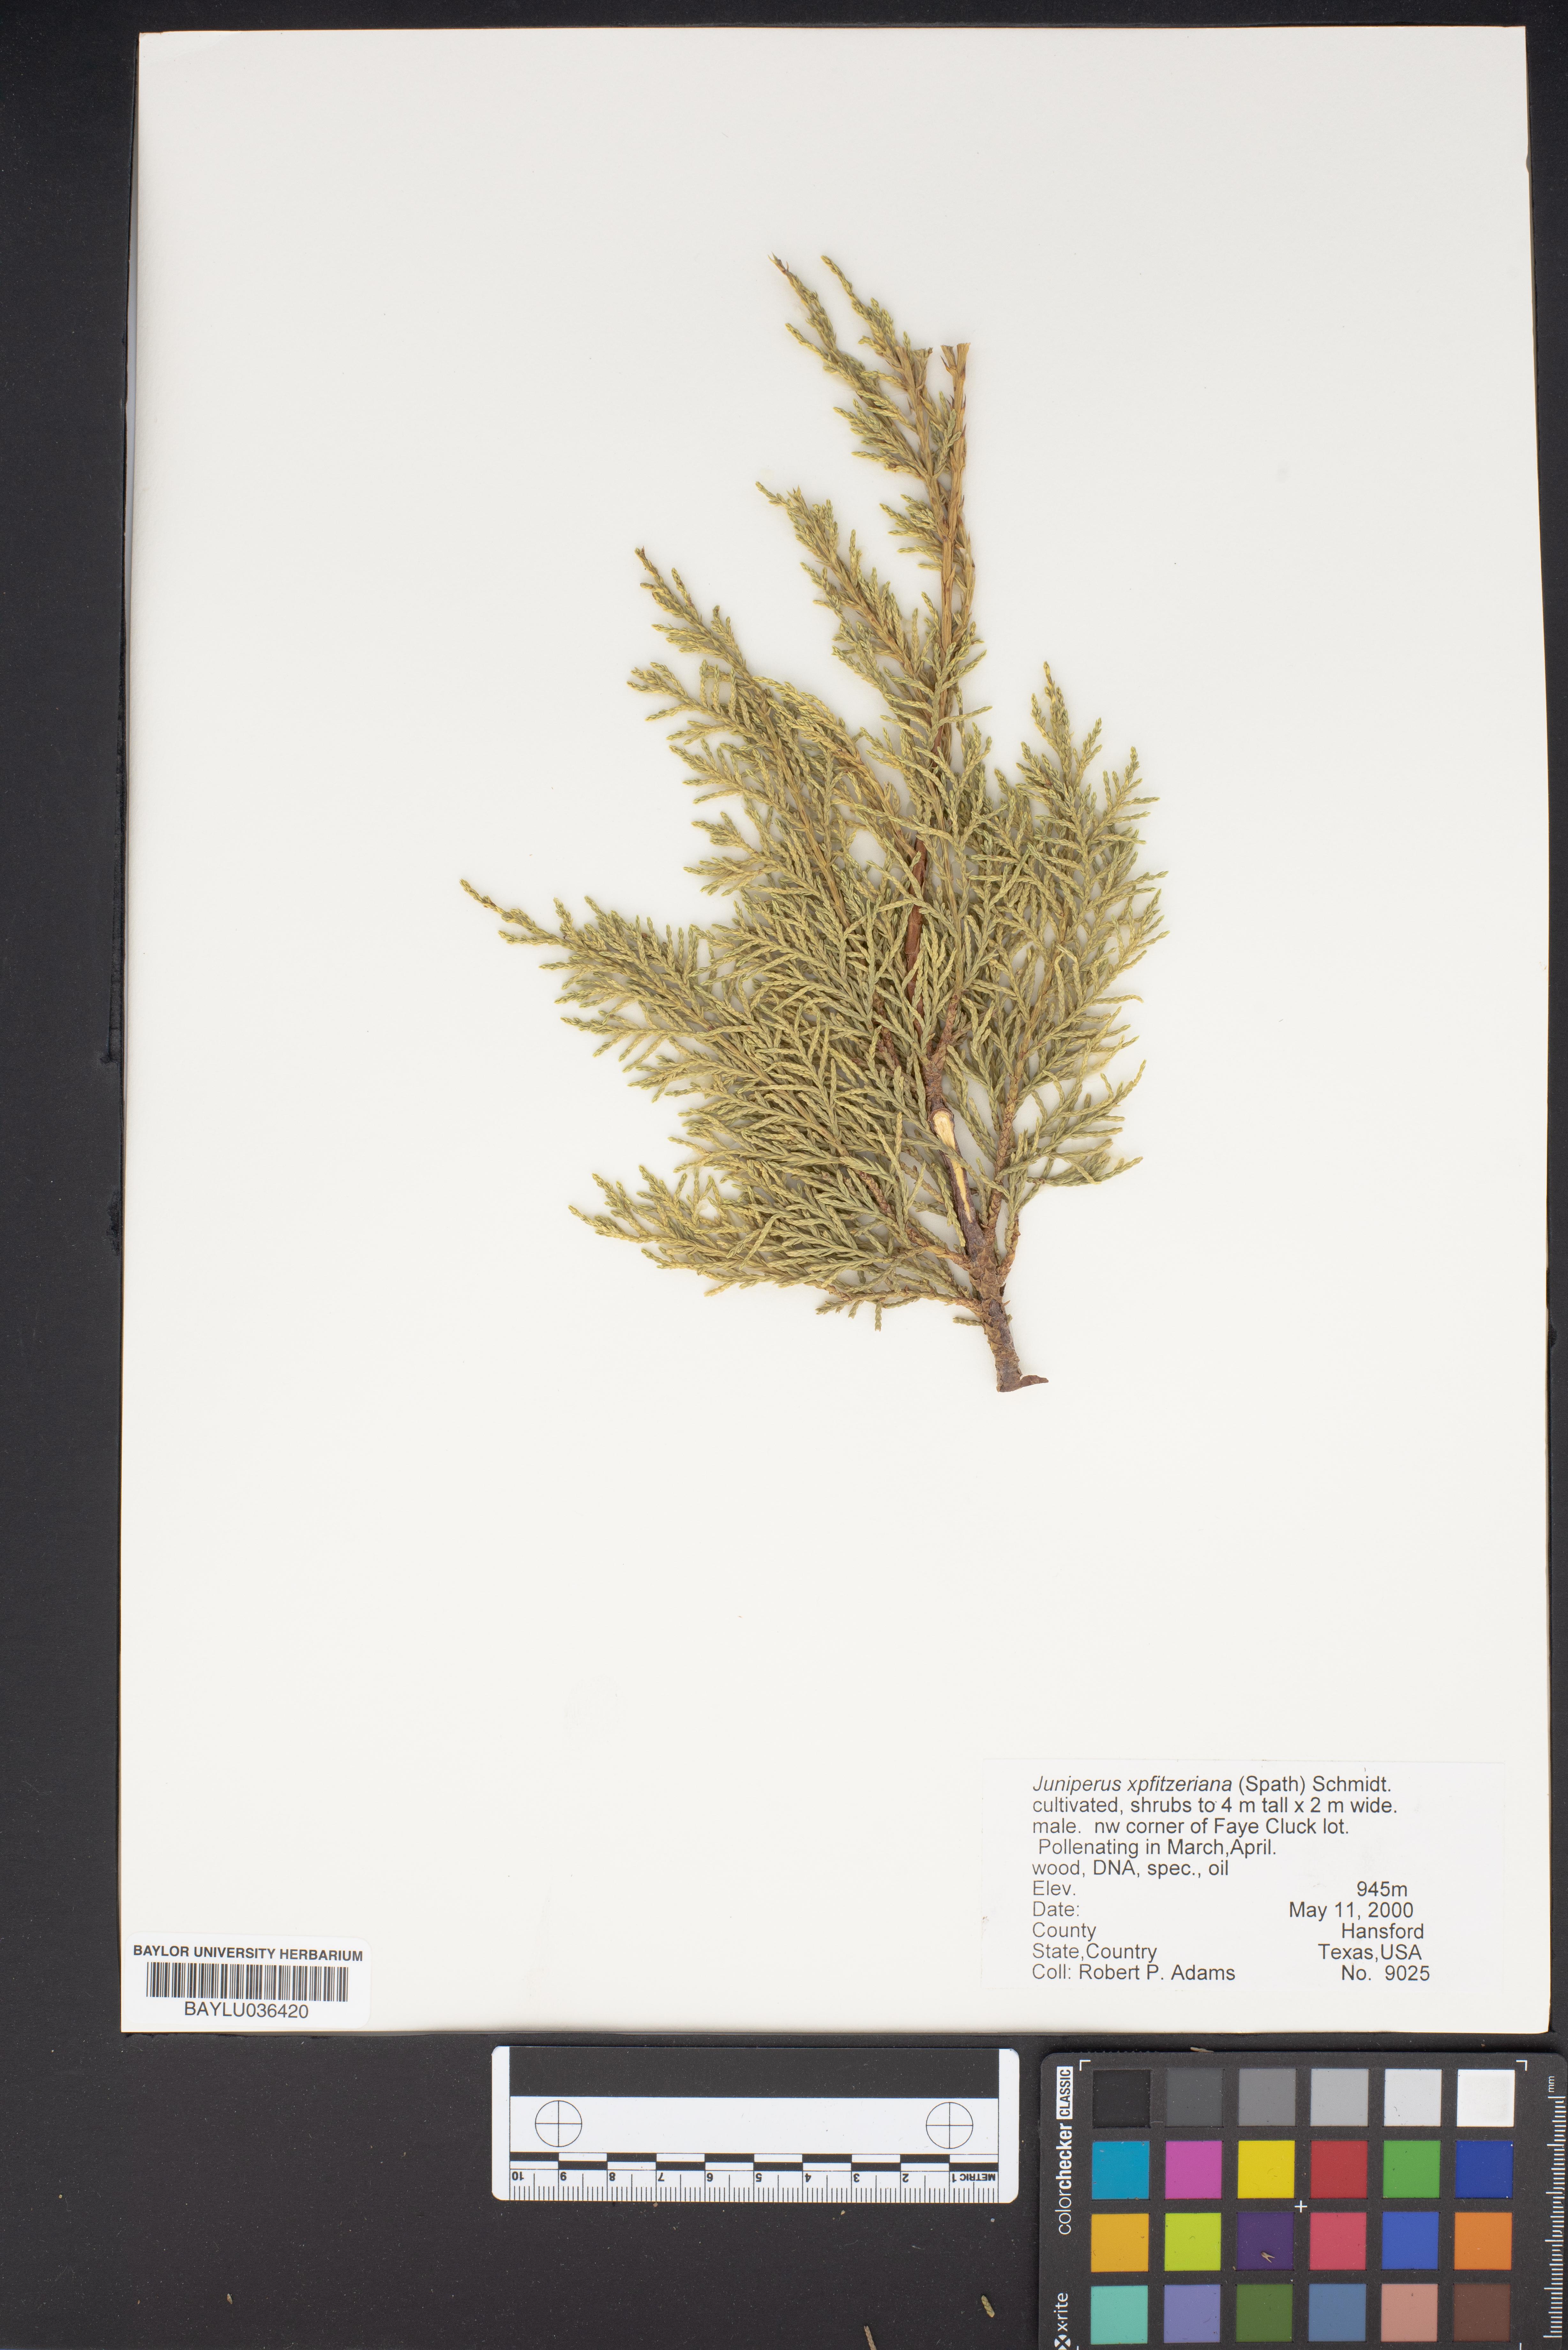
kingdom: Plantae
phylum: Tracheophyta
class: Pinopsida
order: Pinales
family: Cupressaceae
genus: Juniperus
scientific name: Juniperus pfitzeriana
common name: Pfitzer juniper
